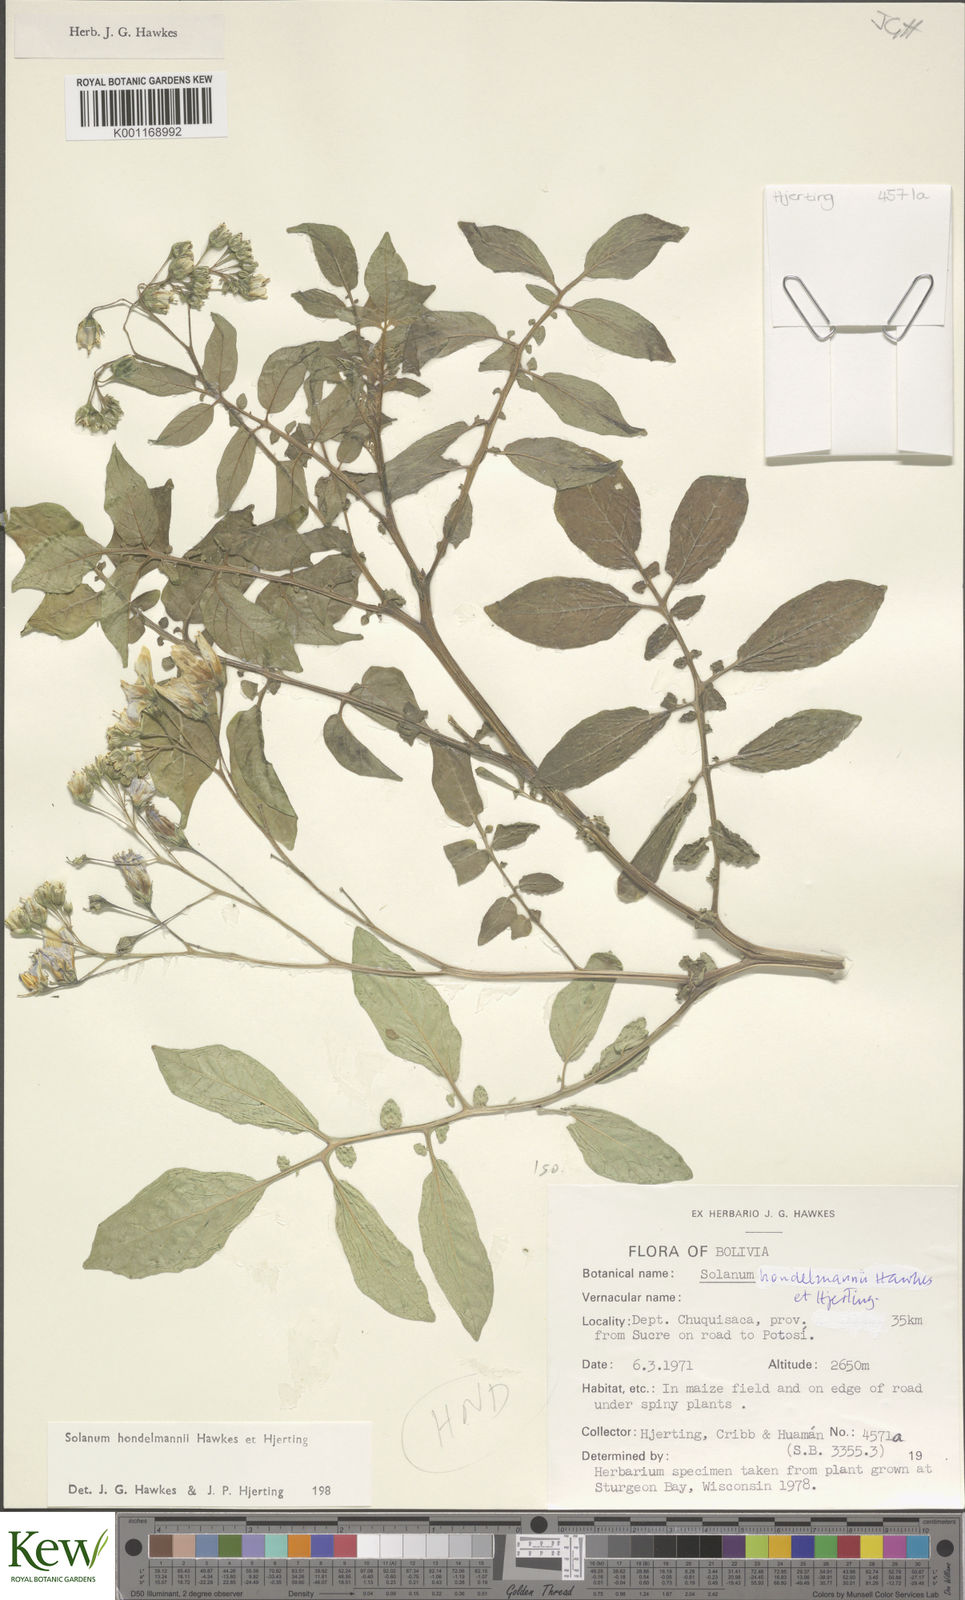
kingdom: Plantae
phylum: Tracheophyta
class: Magnoliopsida
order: Solanales
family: Solanaceae
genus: Solanum
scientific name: Solanum brevicaule
